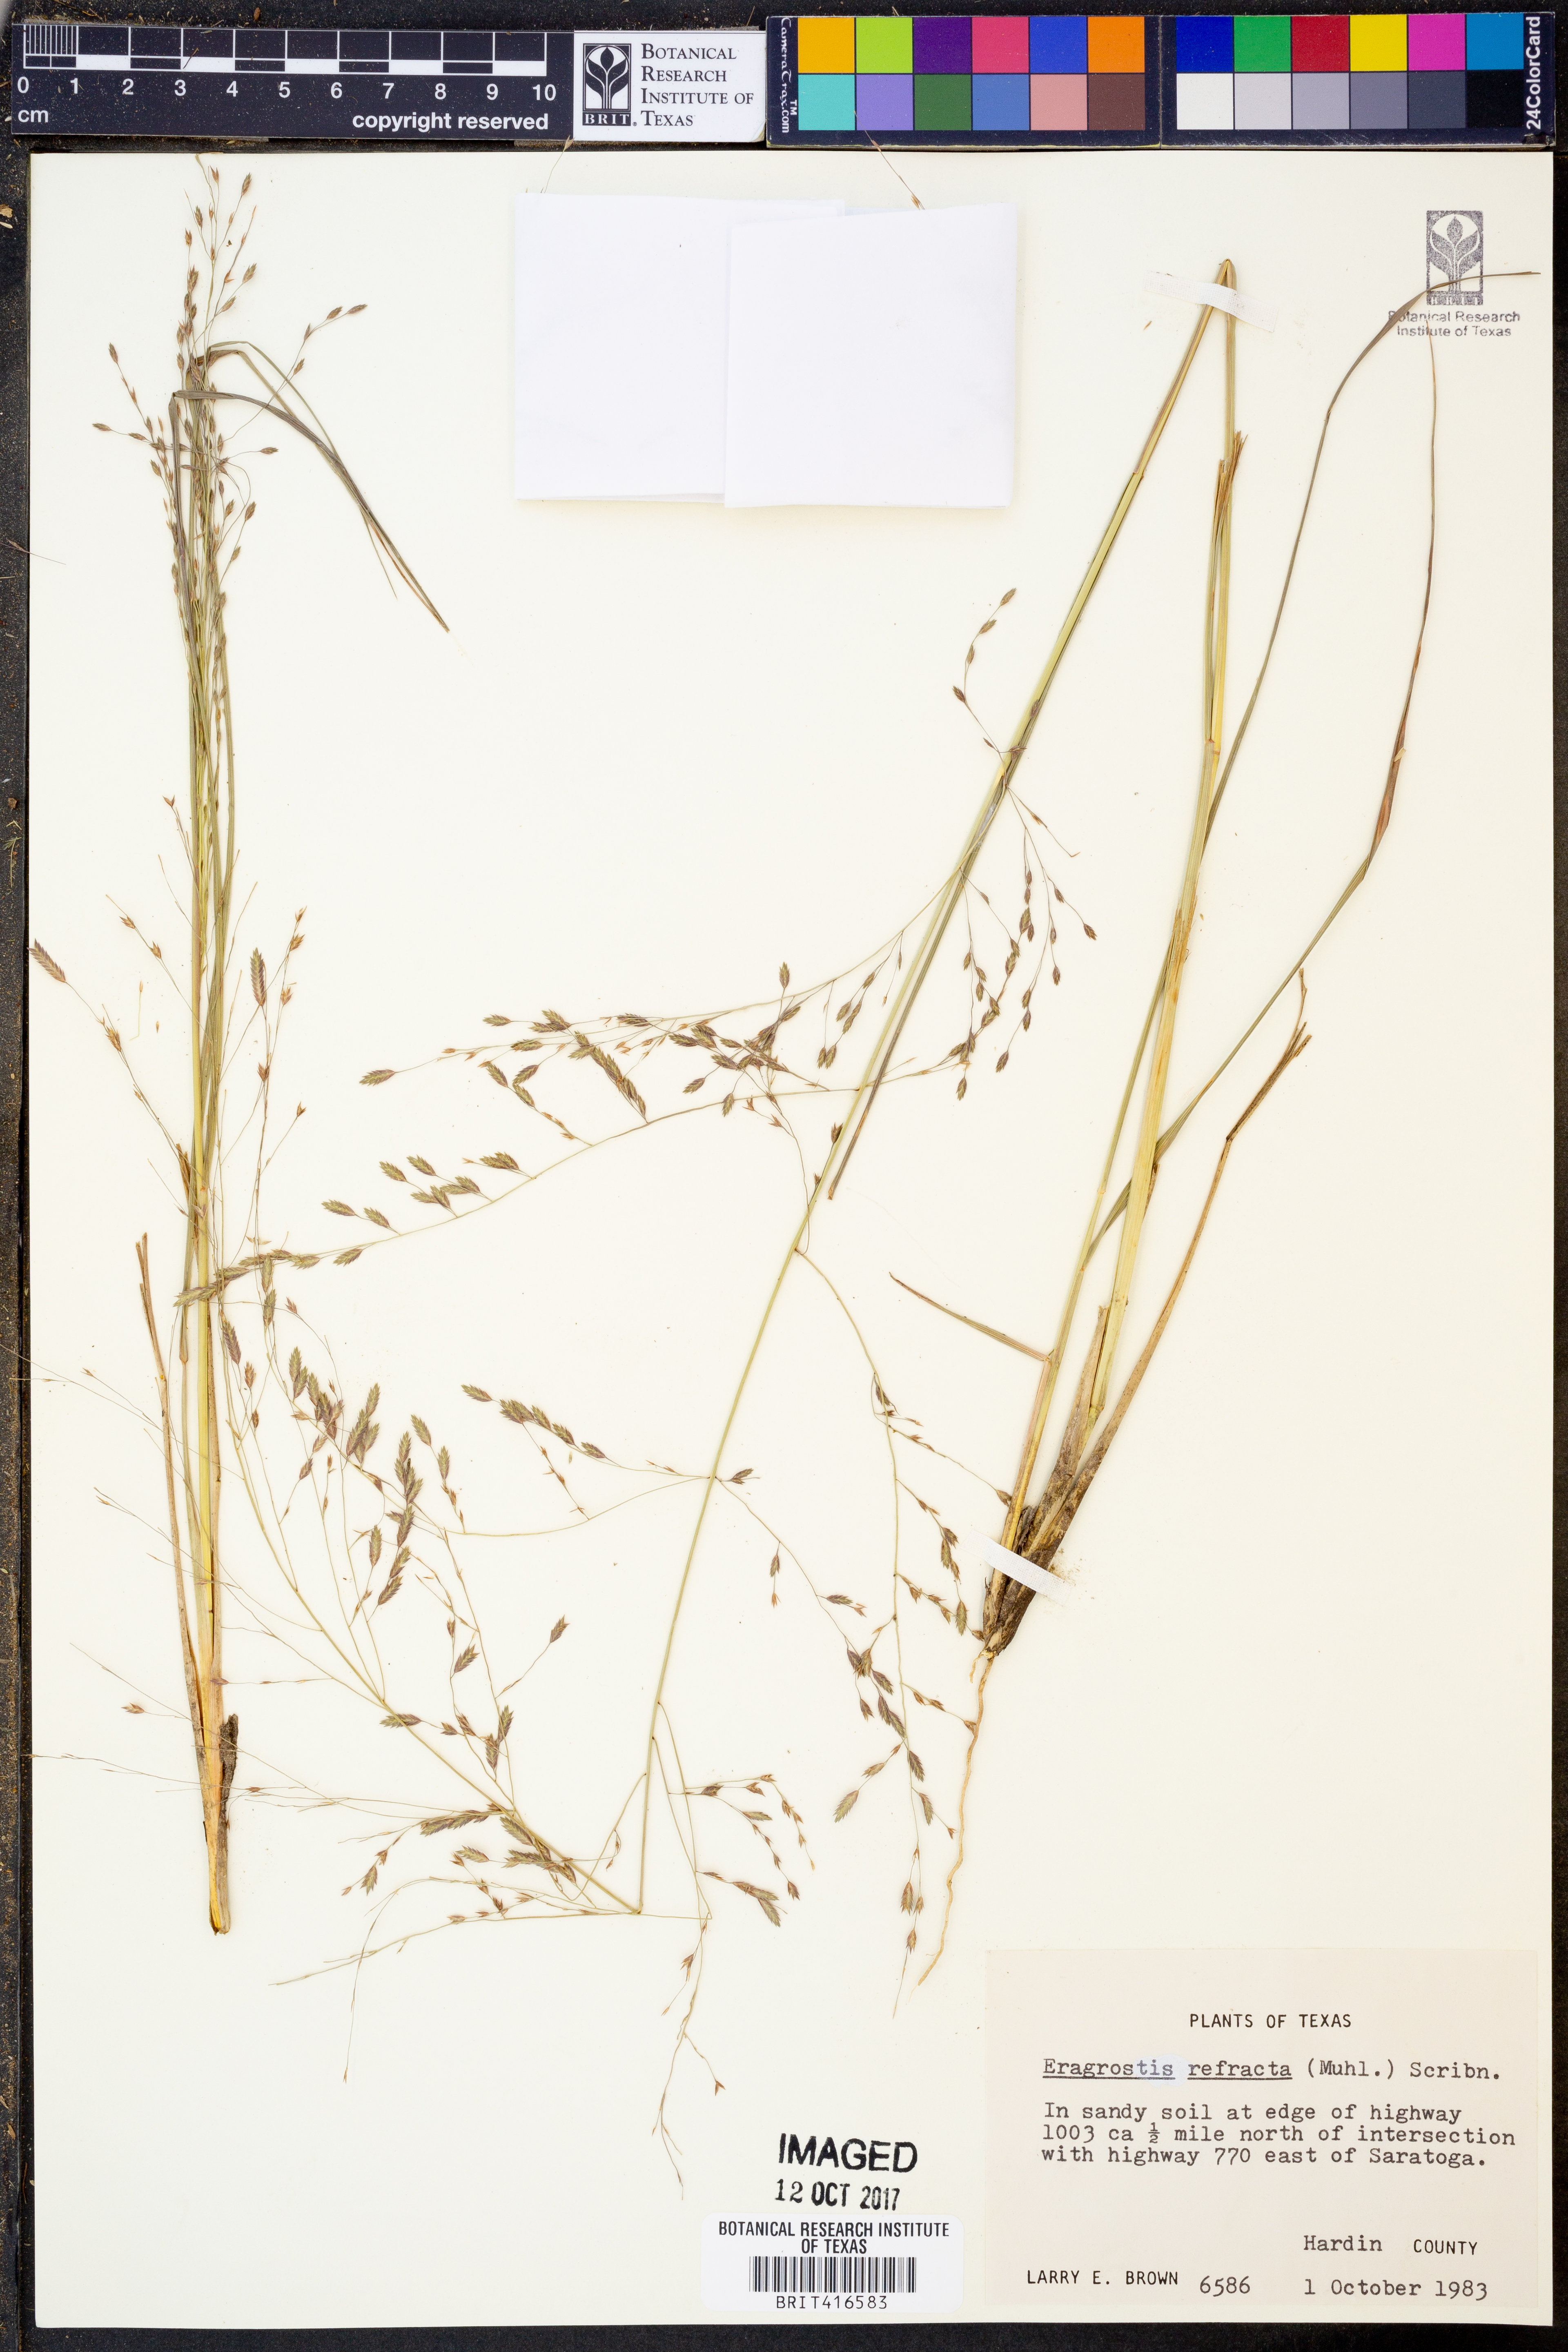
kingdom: Plantae
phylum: Tracheophyta
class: Liliopsida
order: Poales
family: Poaceae
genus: Eragrostis
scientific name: Eragrostis refracta
